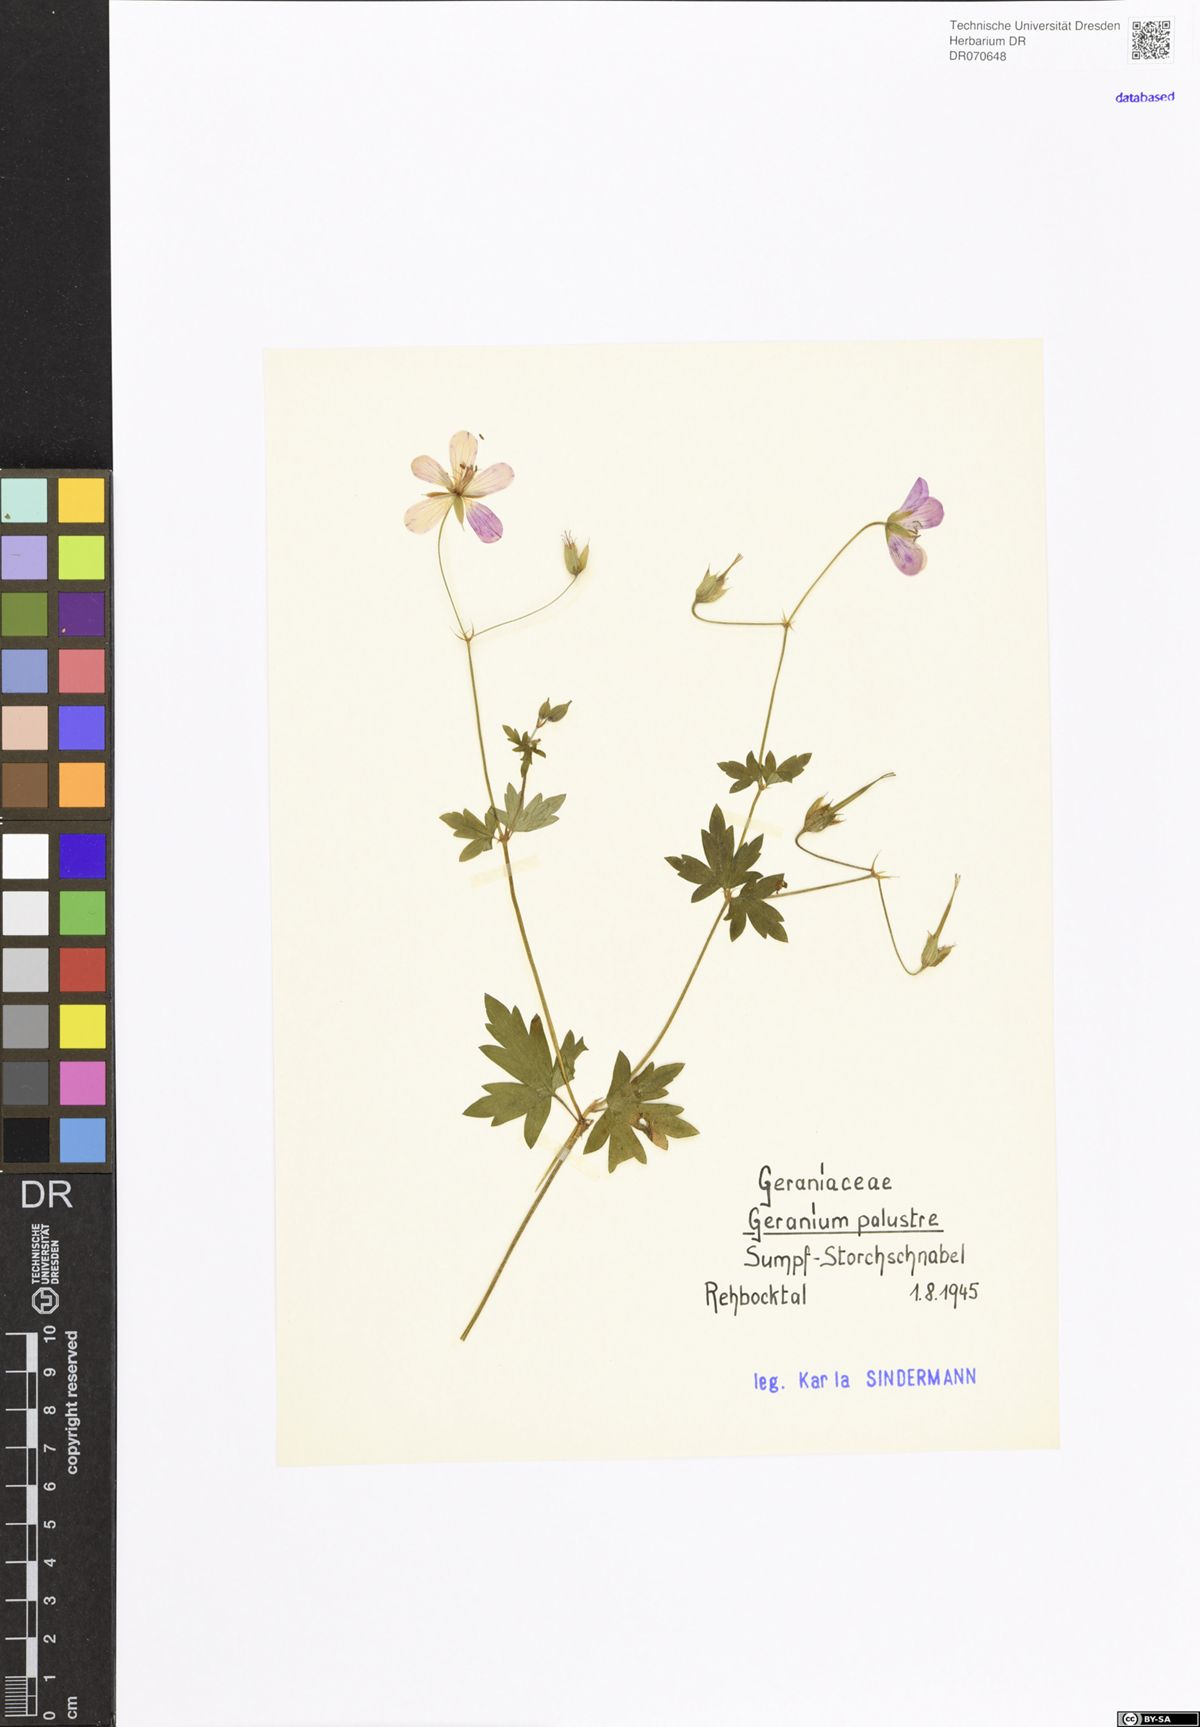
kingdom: Plantae
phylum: Tracheophyta
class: Magnoliopsida
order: Geraniales
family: Geraniaceae
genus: Geranium
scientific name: Geranium palustre
